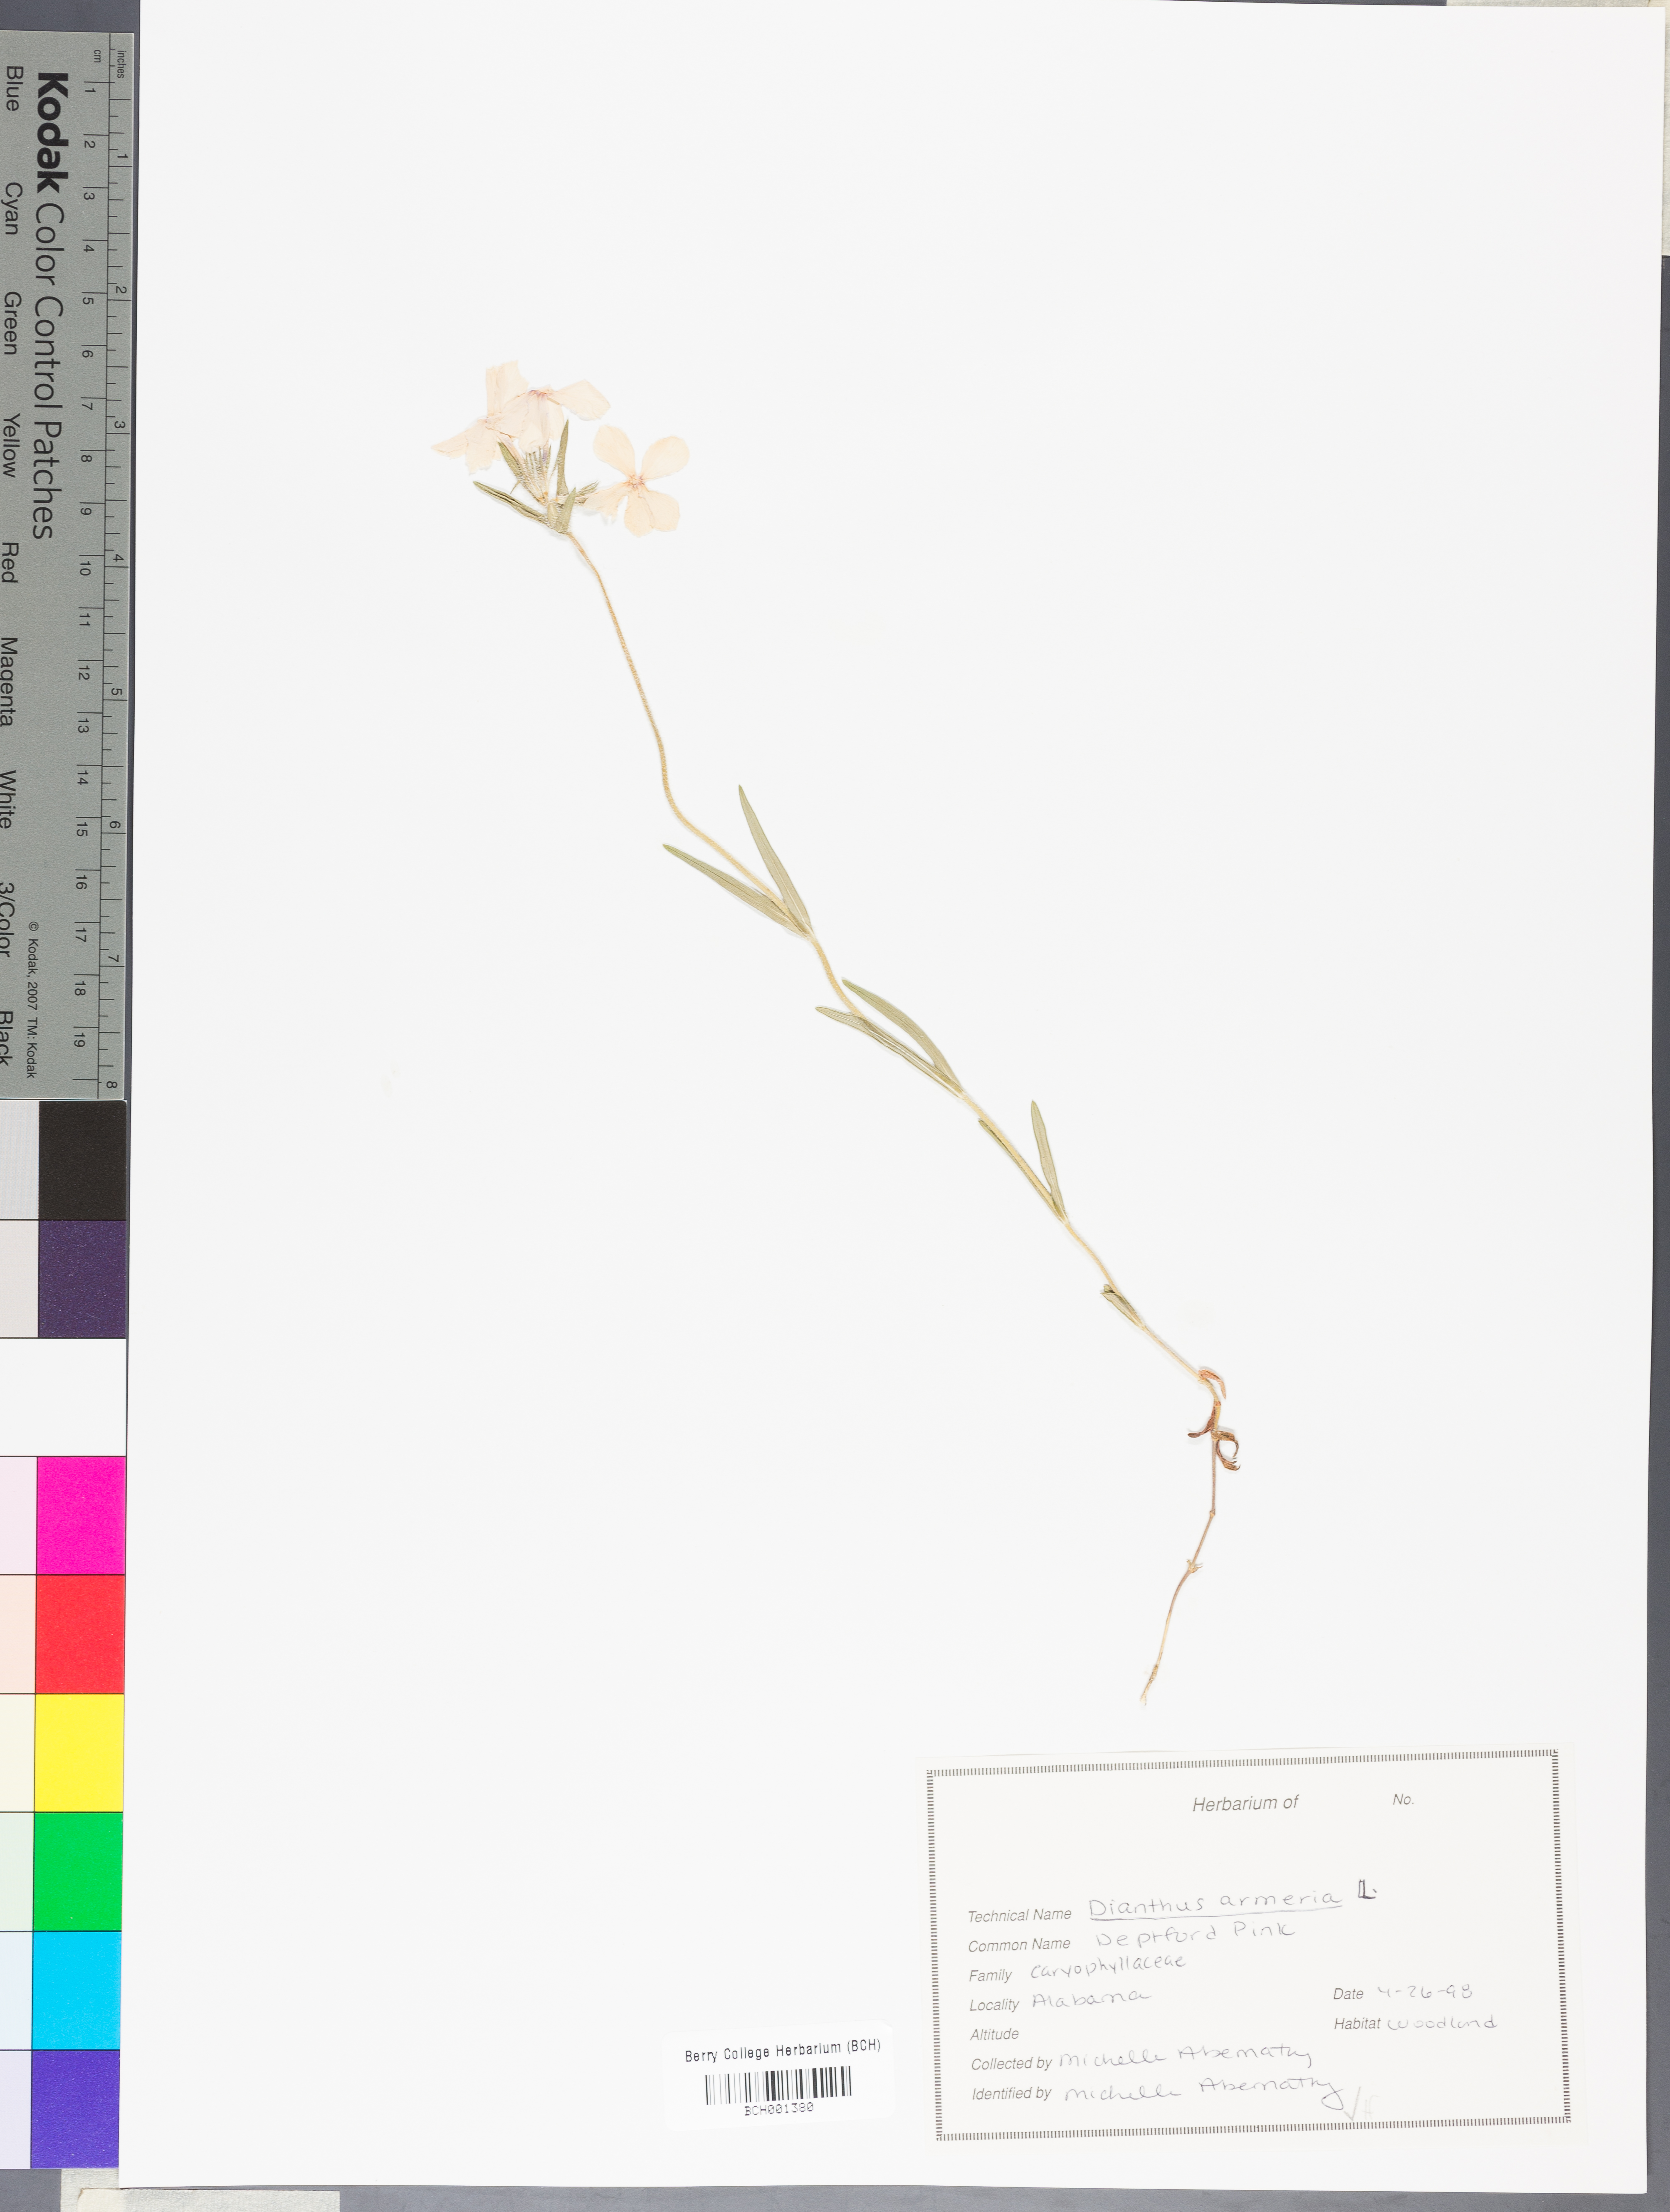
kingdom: Plantae
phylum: Tracheophyta
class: Magnoliopsida
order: Caryophyllales
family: Caryophyllaceae
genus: Dianthus
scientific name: Dianthus armeria
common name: Deptford pink
